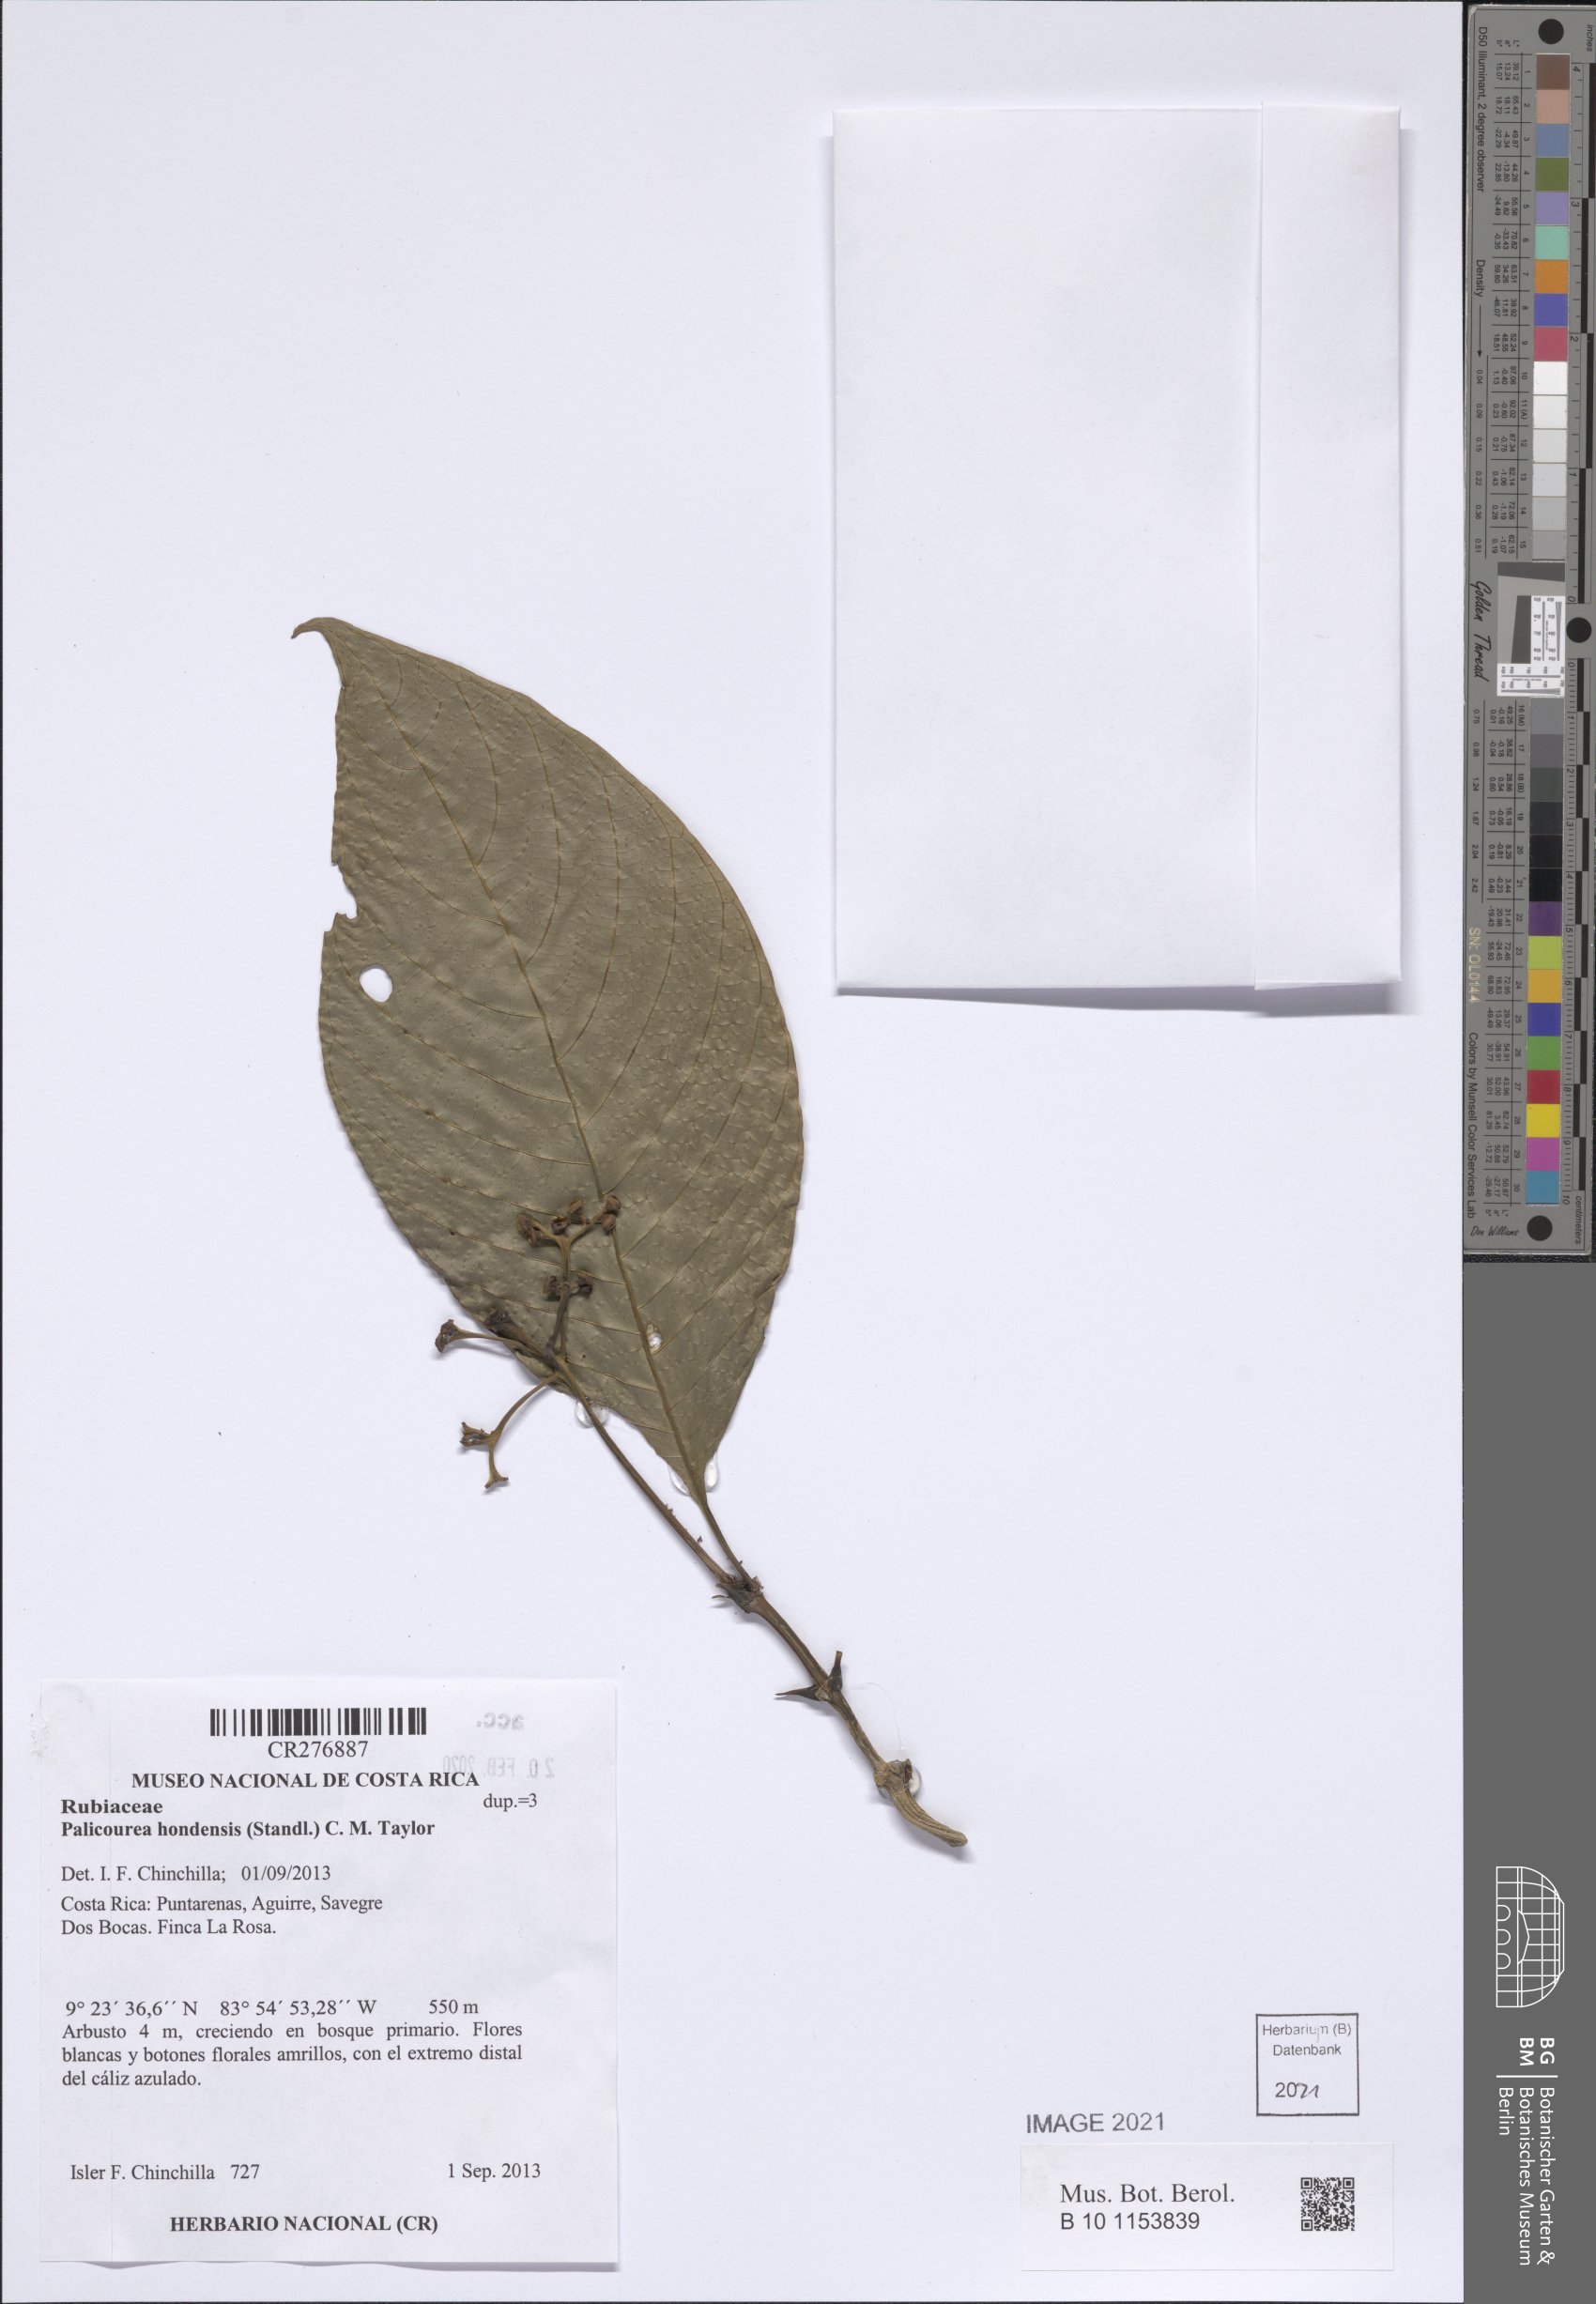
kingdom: Plantae
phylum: Tracheophyta
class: Magnoliopsida
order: Gentianales
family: Rubiaceae
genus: Palicourea
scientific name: Palicourea hondensis
